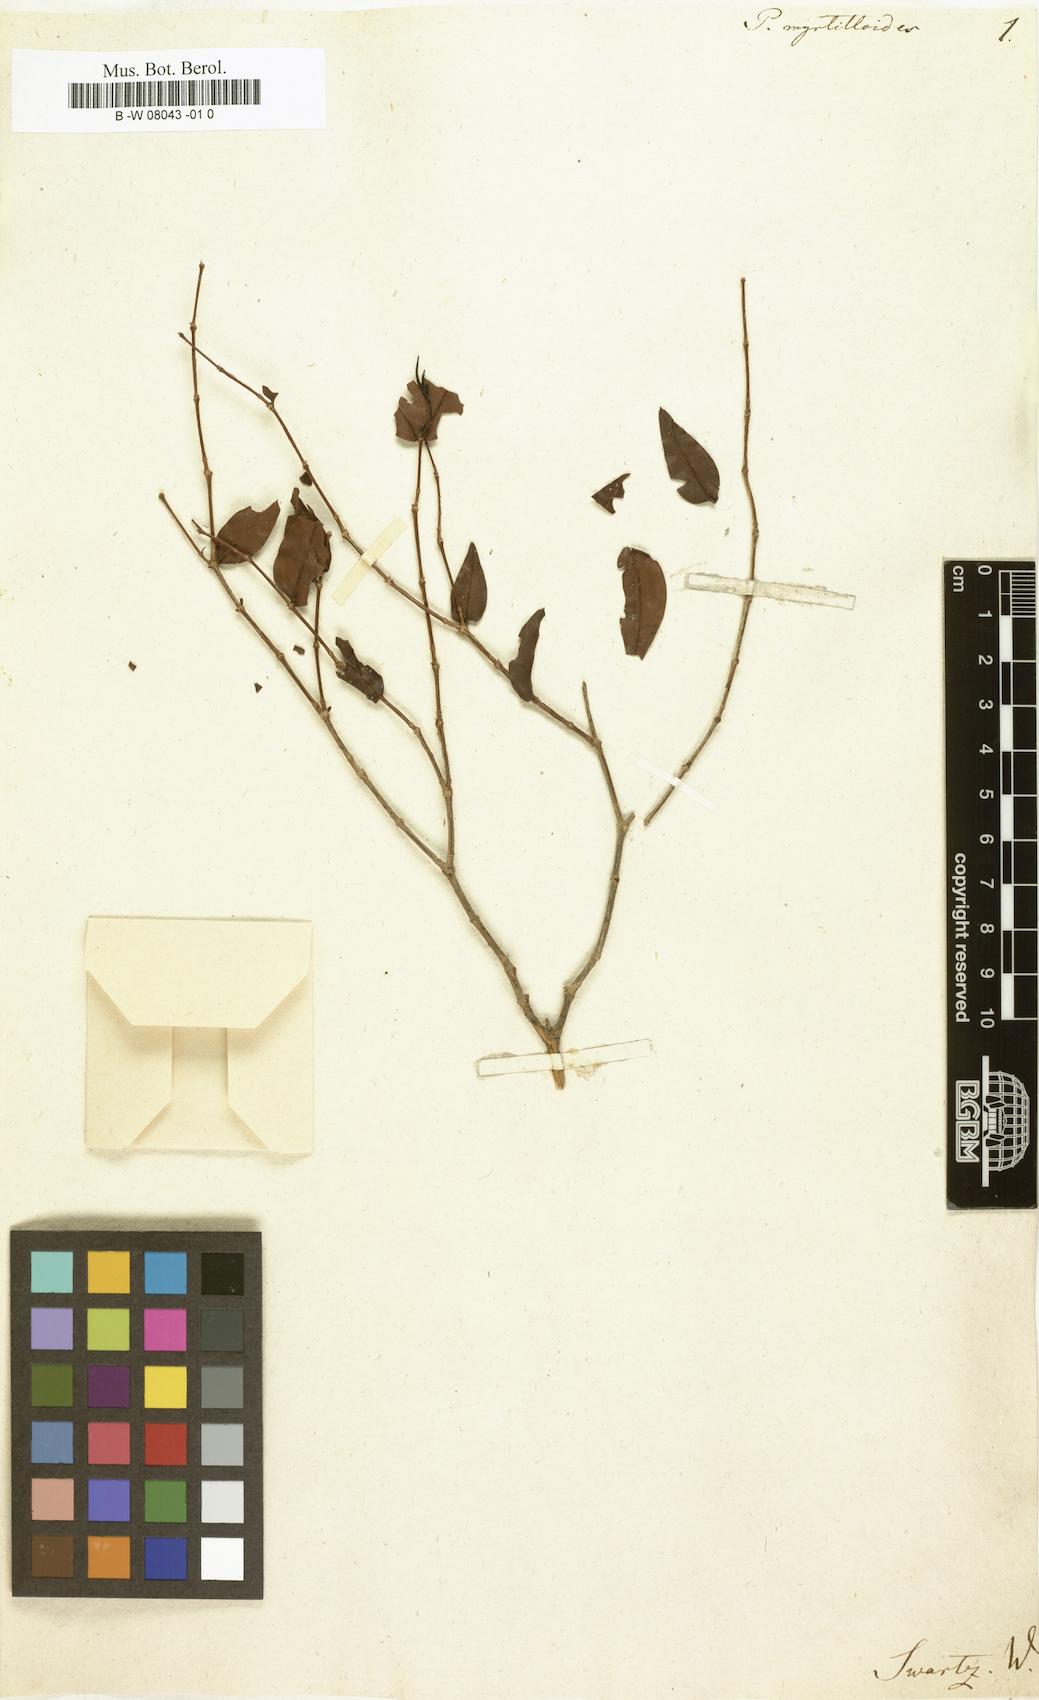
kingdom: Plantae
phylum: Tracheophyta
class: Magnoliopsida
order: Myrtales
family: Melastomataceae
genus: Mouriri
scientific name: Mouriri myrtilloides
